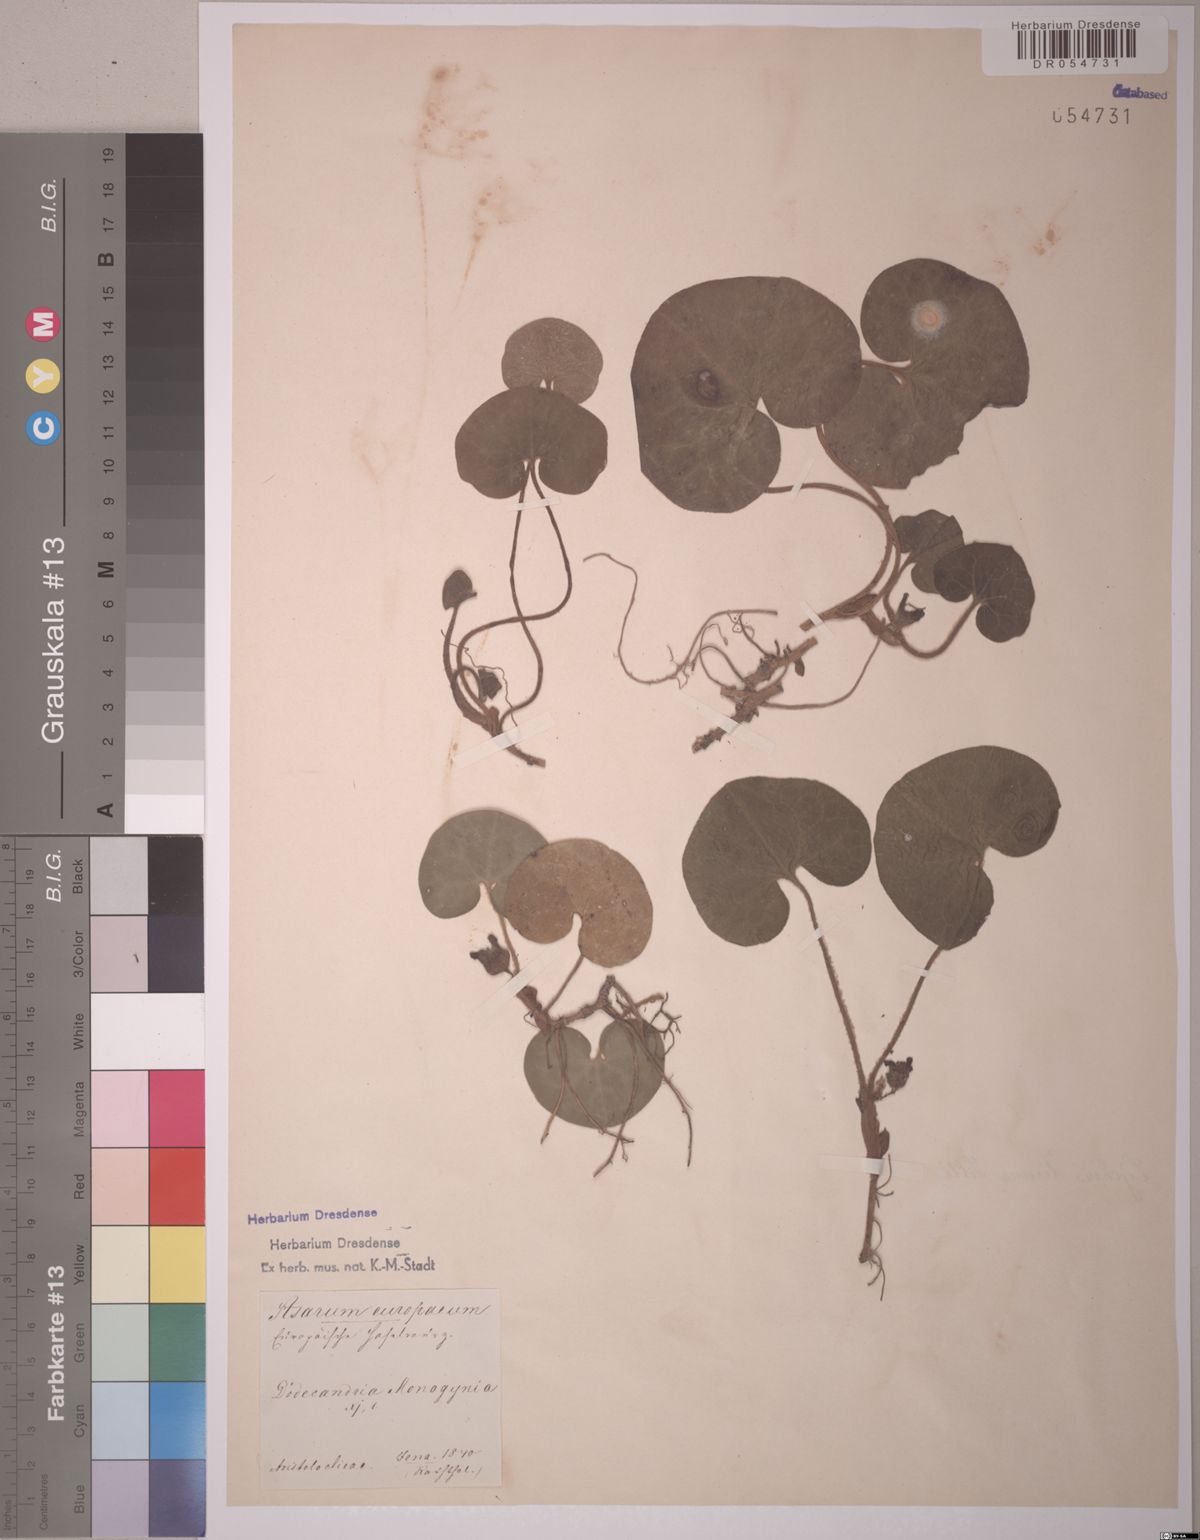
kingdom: Plantae
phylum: Tracheophyta
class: Magnoliopsida
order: Piperales
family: Aristolochiaceae
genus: Asarum
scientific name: Asarum europaeum
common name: Asarabacca
